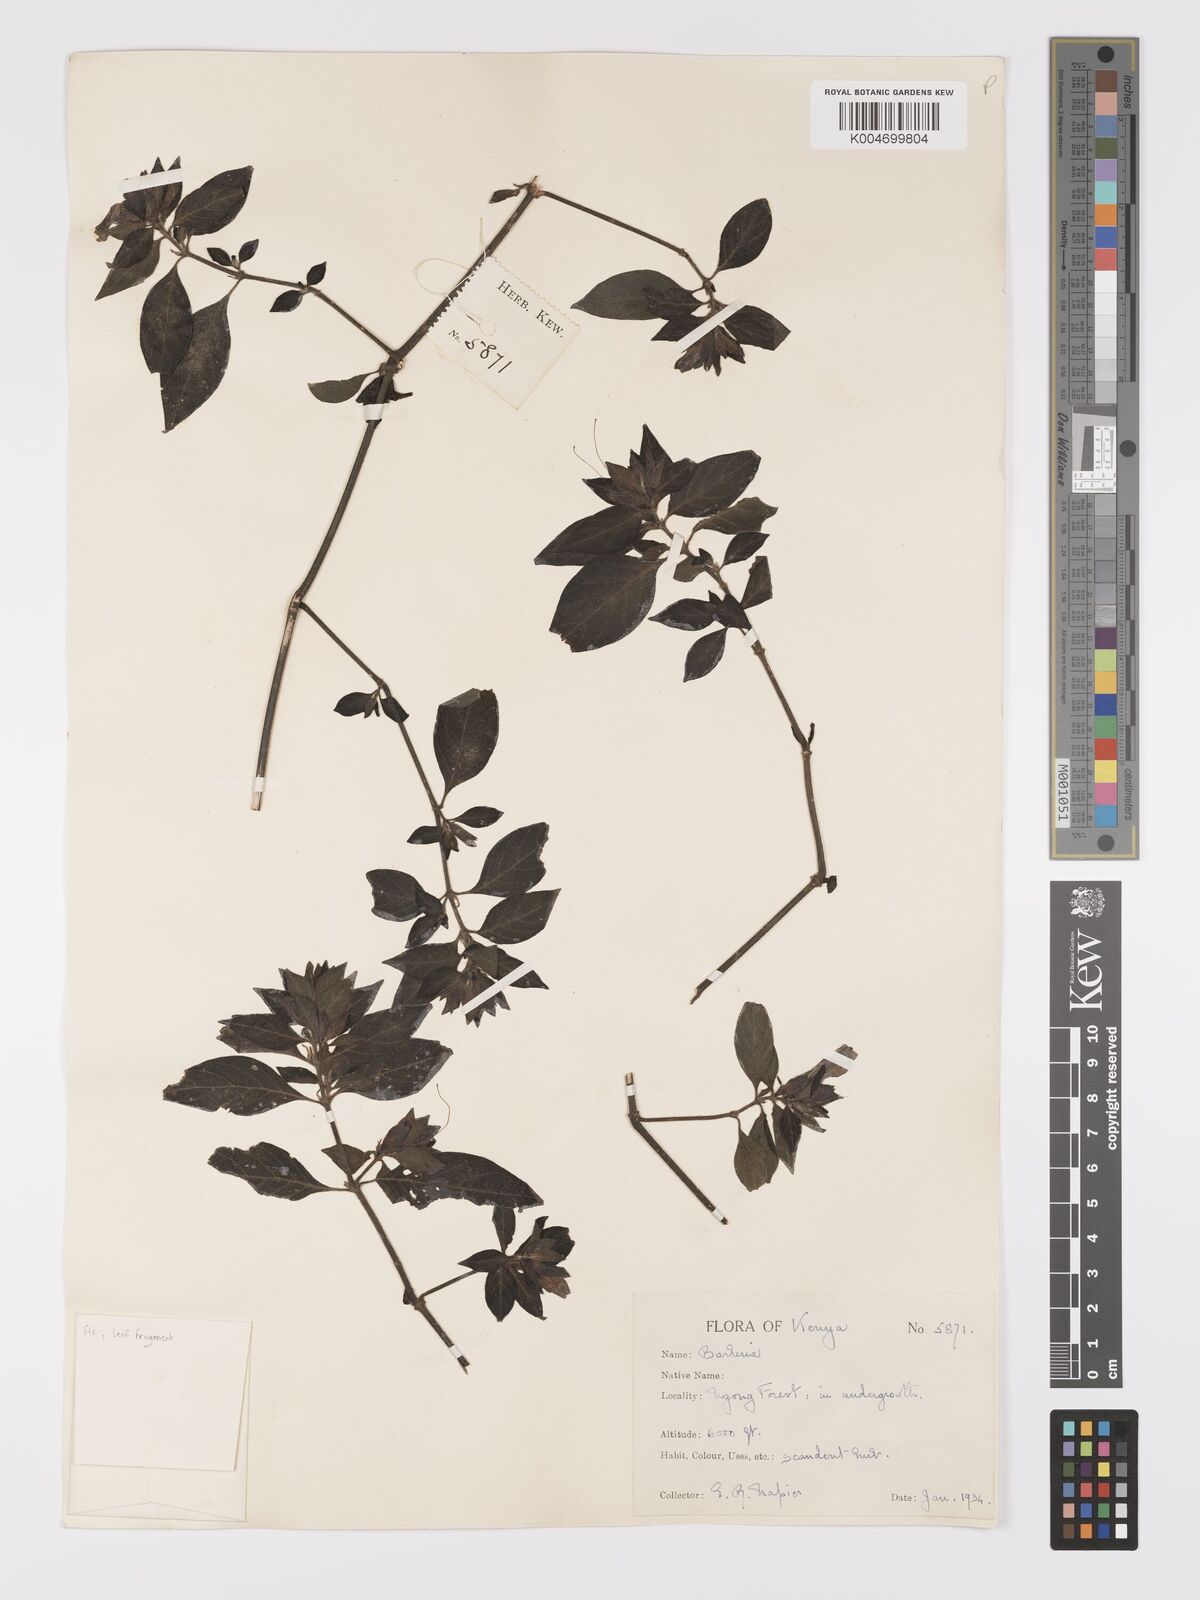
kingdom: Plantae
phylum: Tracheophyta
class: Magnoliopsida
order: Lamiales
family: Acanthaceae
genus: Barleria
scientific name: Barleria ventricosa
